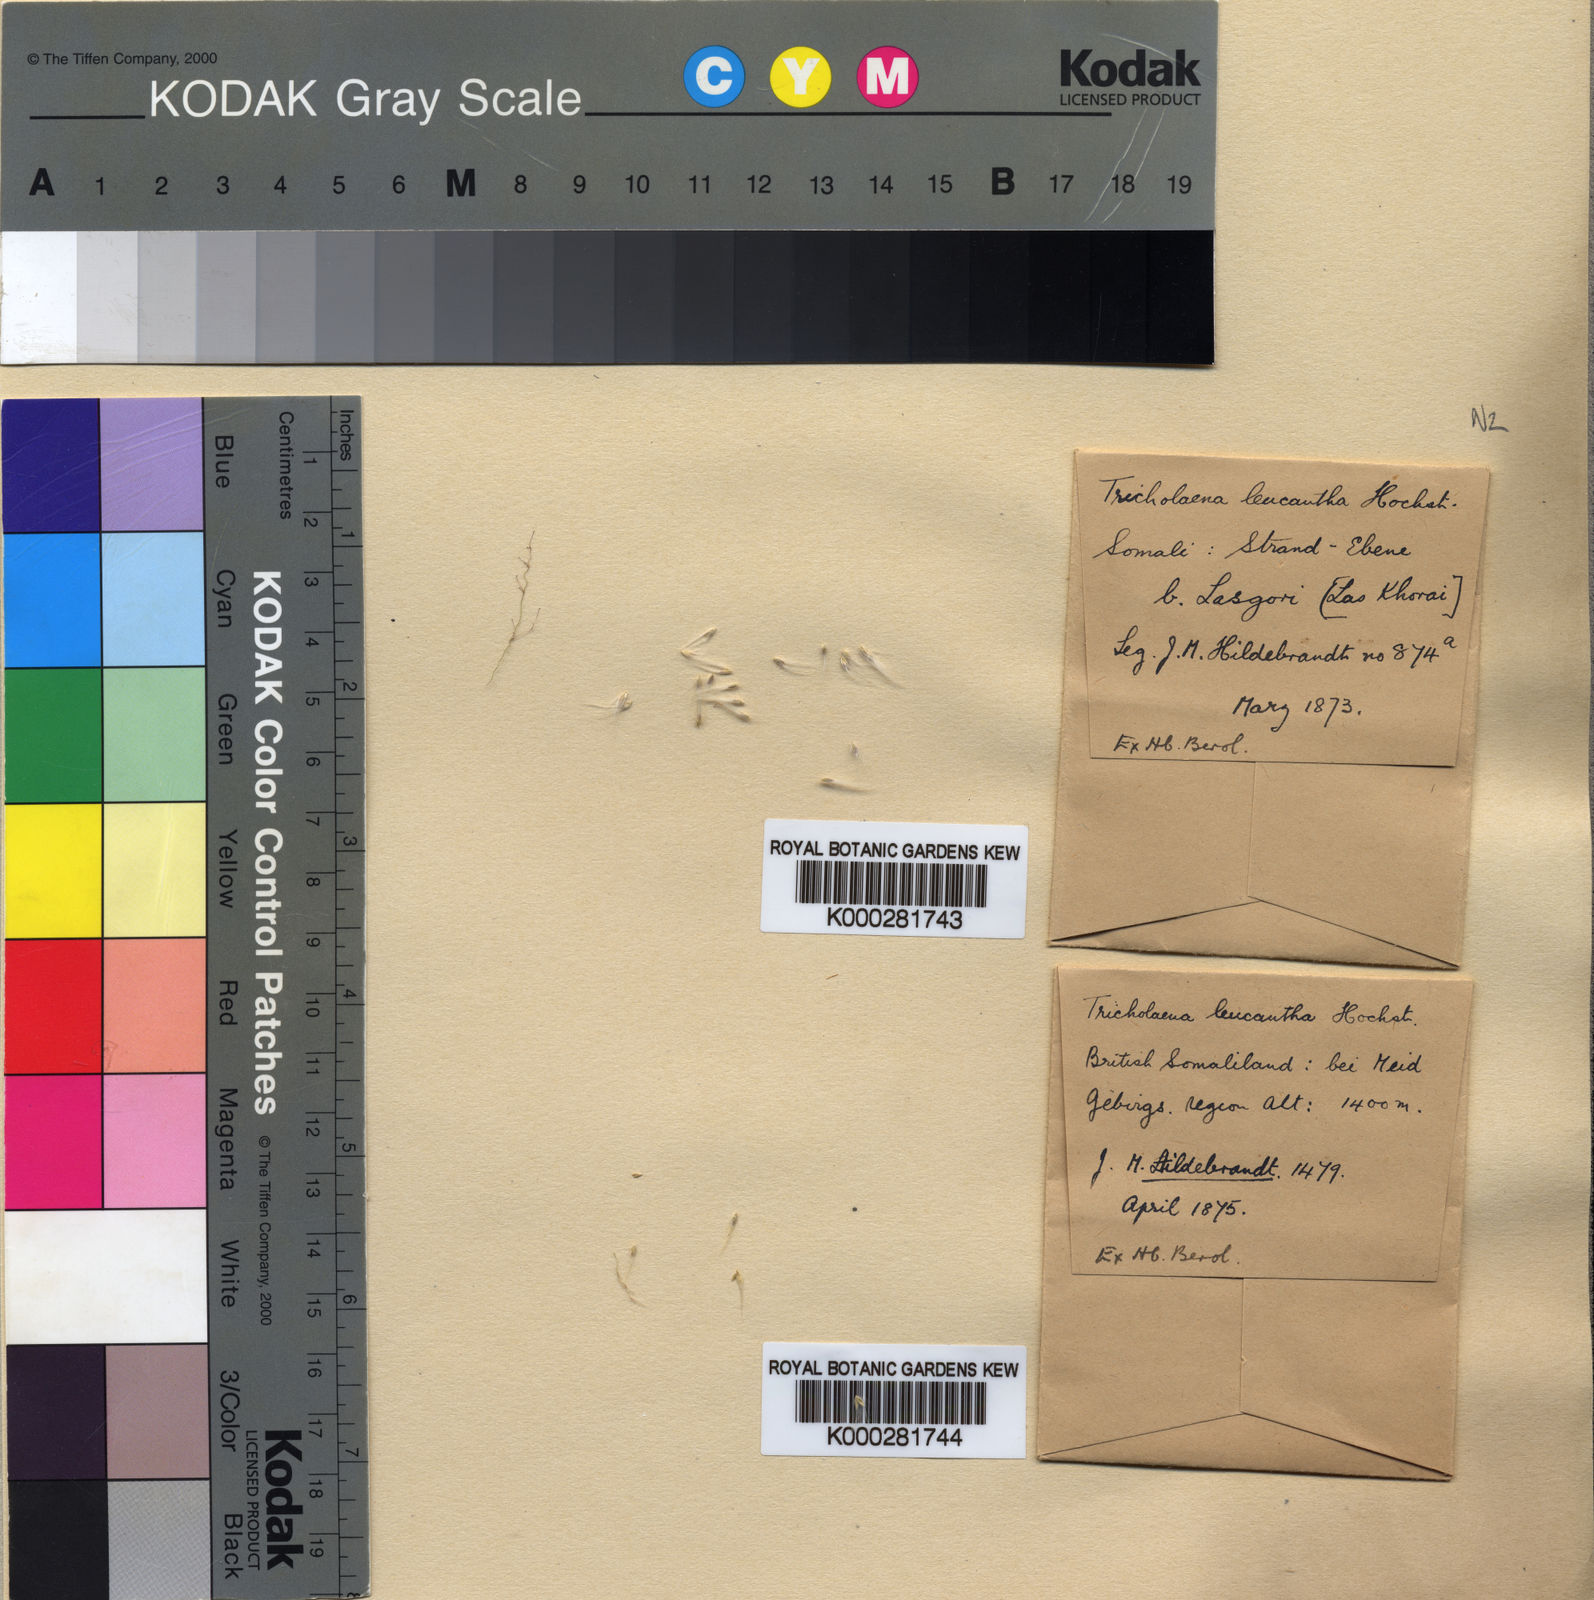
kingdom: Plantae
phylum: Tracheophyta
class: Liliopsida
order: Poales
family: Poaceae
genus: Tricholaena
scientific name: Tricholaena teneriffae
